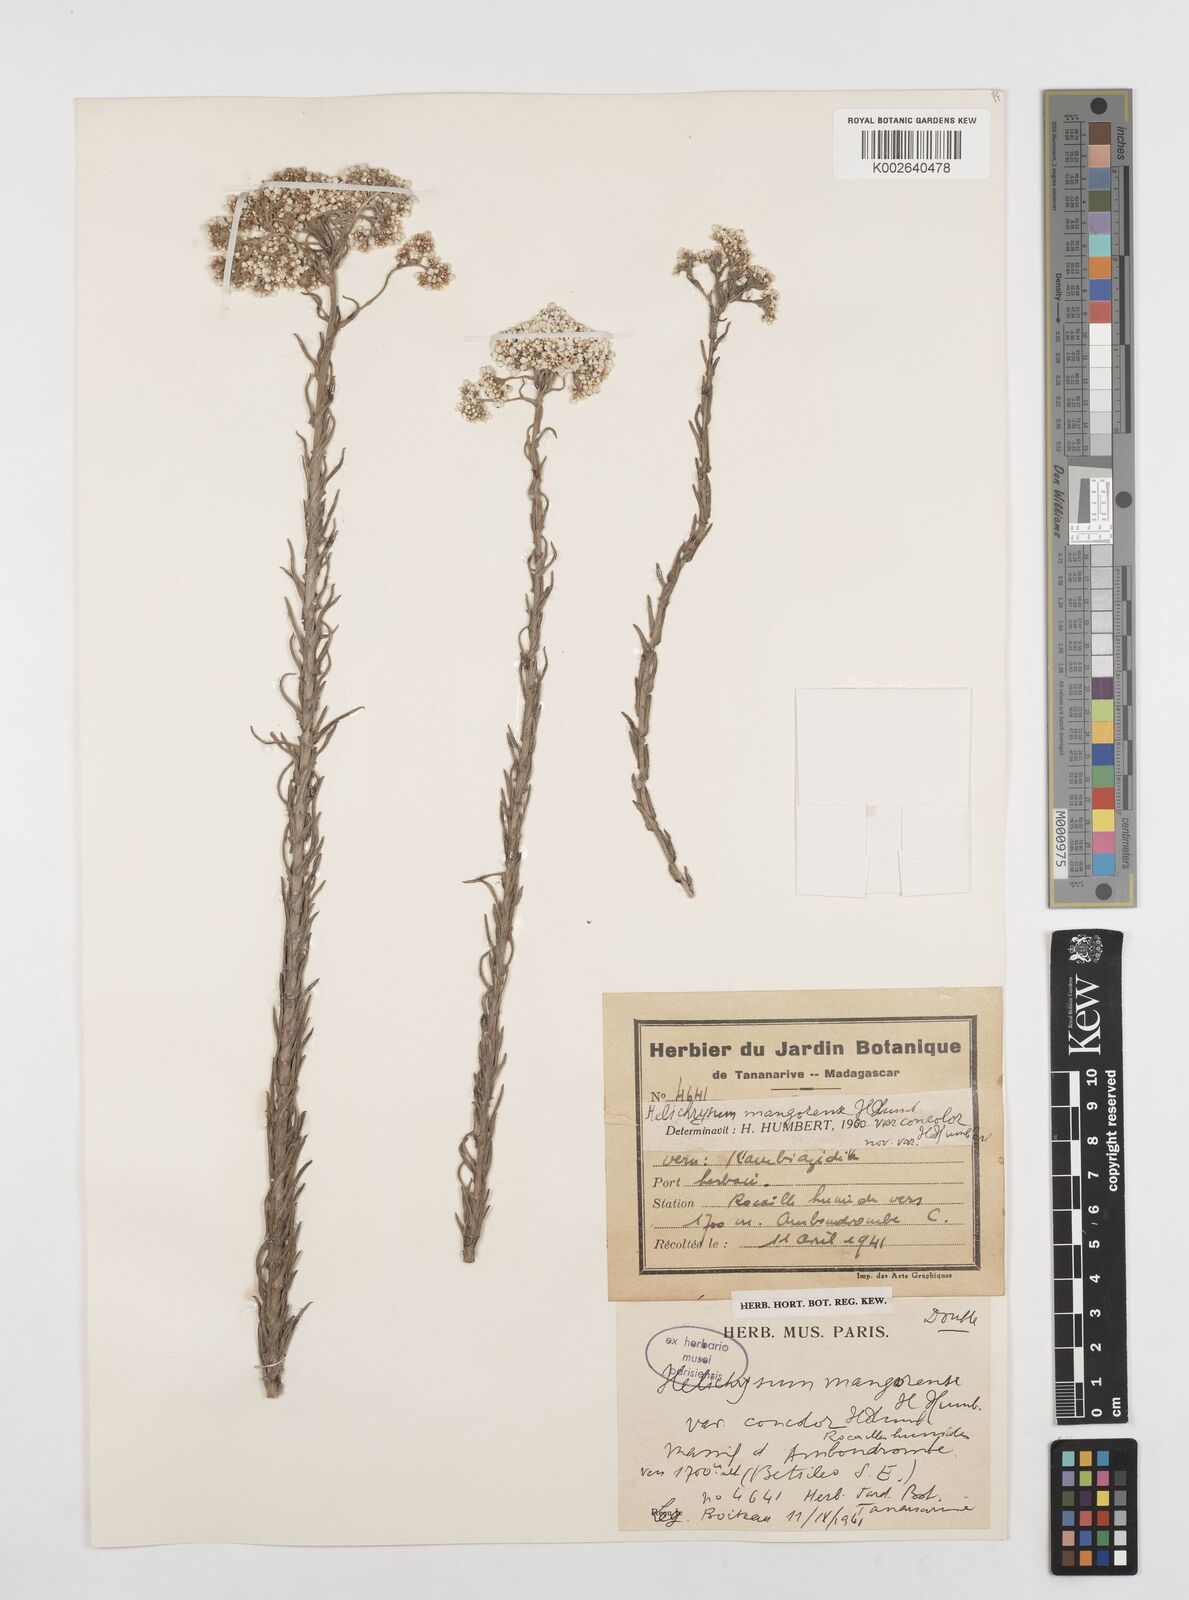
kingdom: Plantae
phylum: Tracheophyta
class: Magnoliopsida
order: Asterales
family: Asteraceae
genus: Helichrysum
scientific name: Helichrysum mangorense
